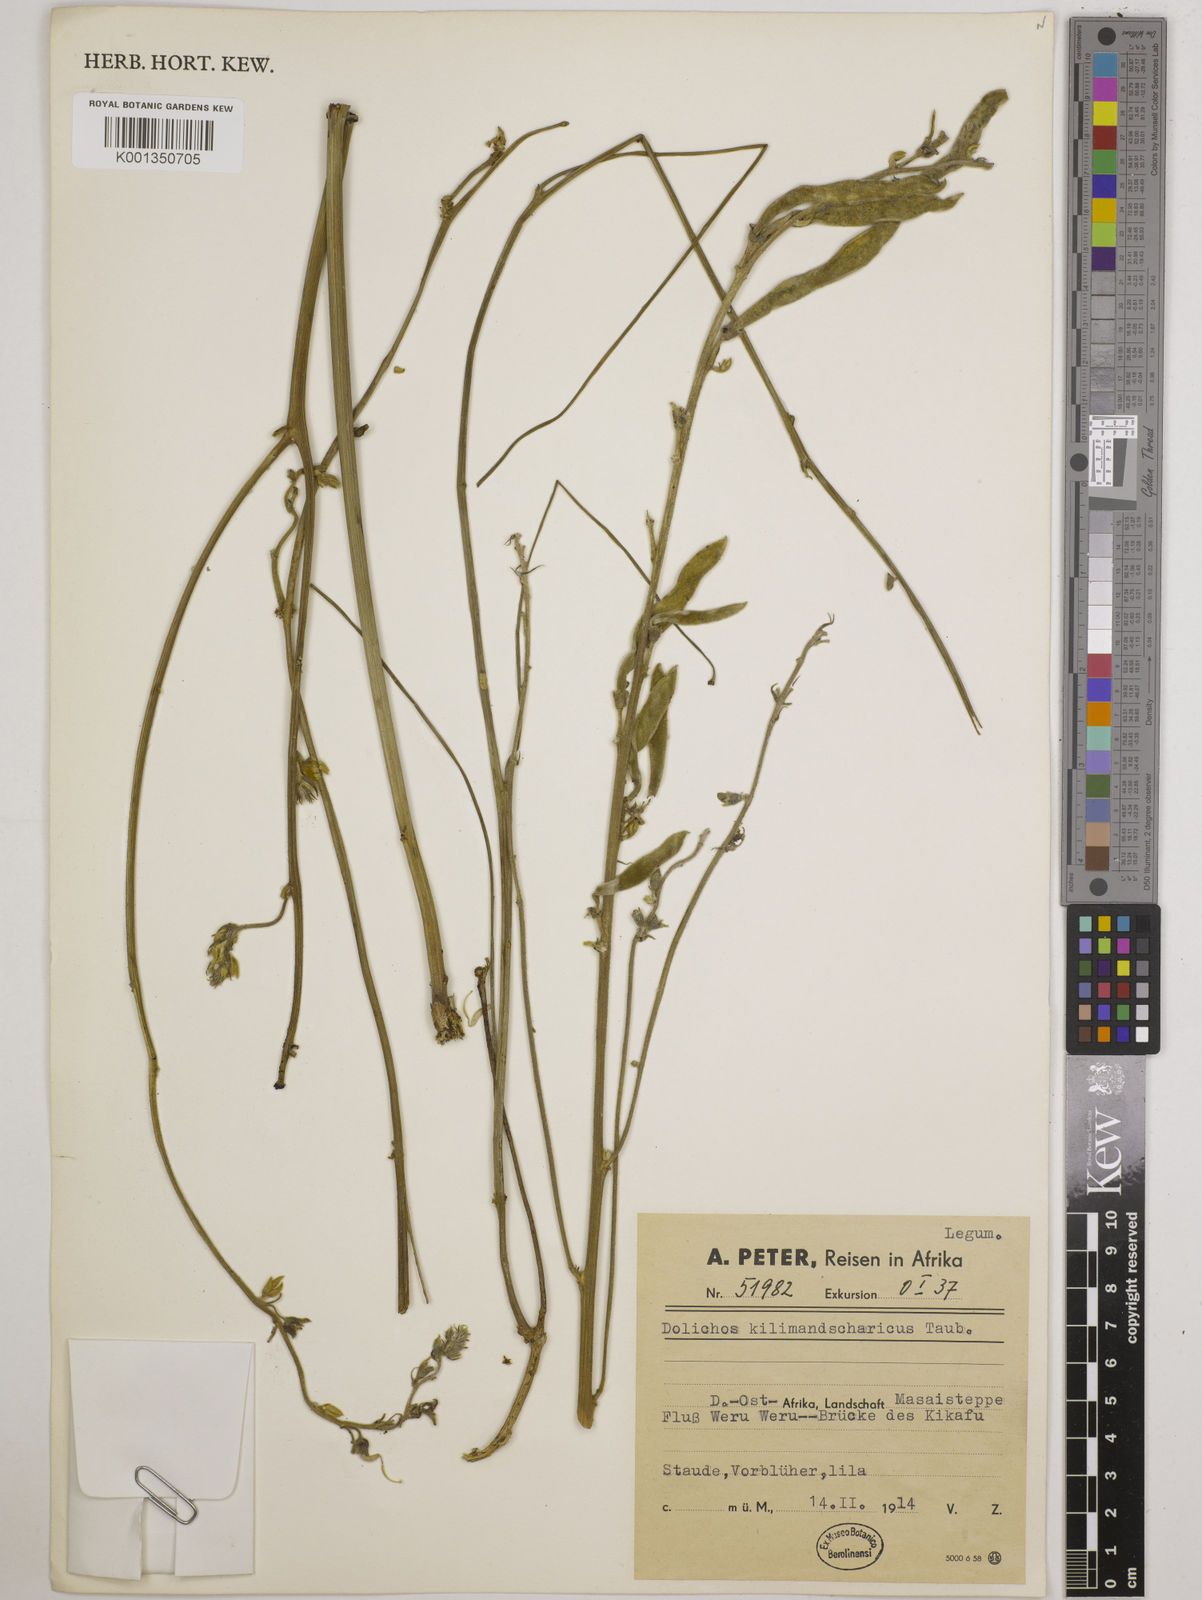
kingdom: Plantae
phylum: Tracheophyta
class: Magnoliopsida
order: Fabales
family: Fabaceae
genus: Dolichos
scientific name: Dolichos kilimandscharicus
